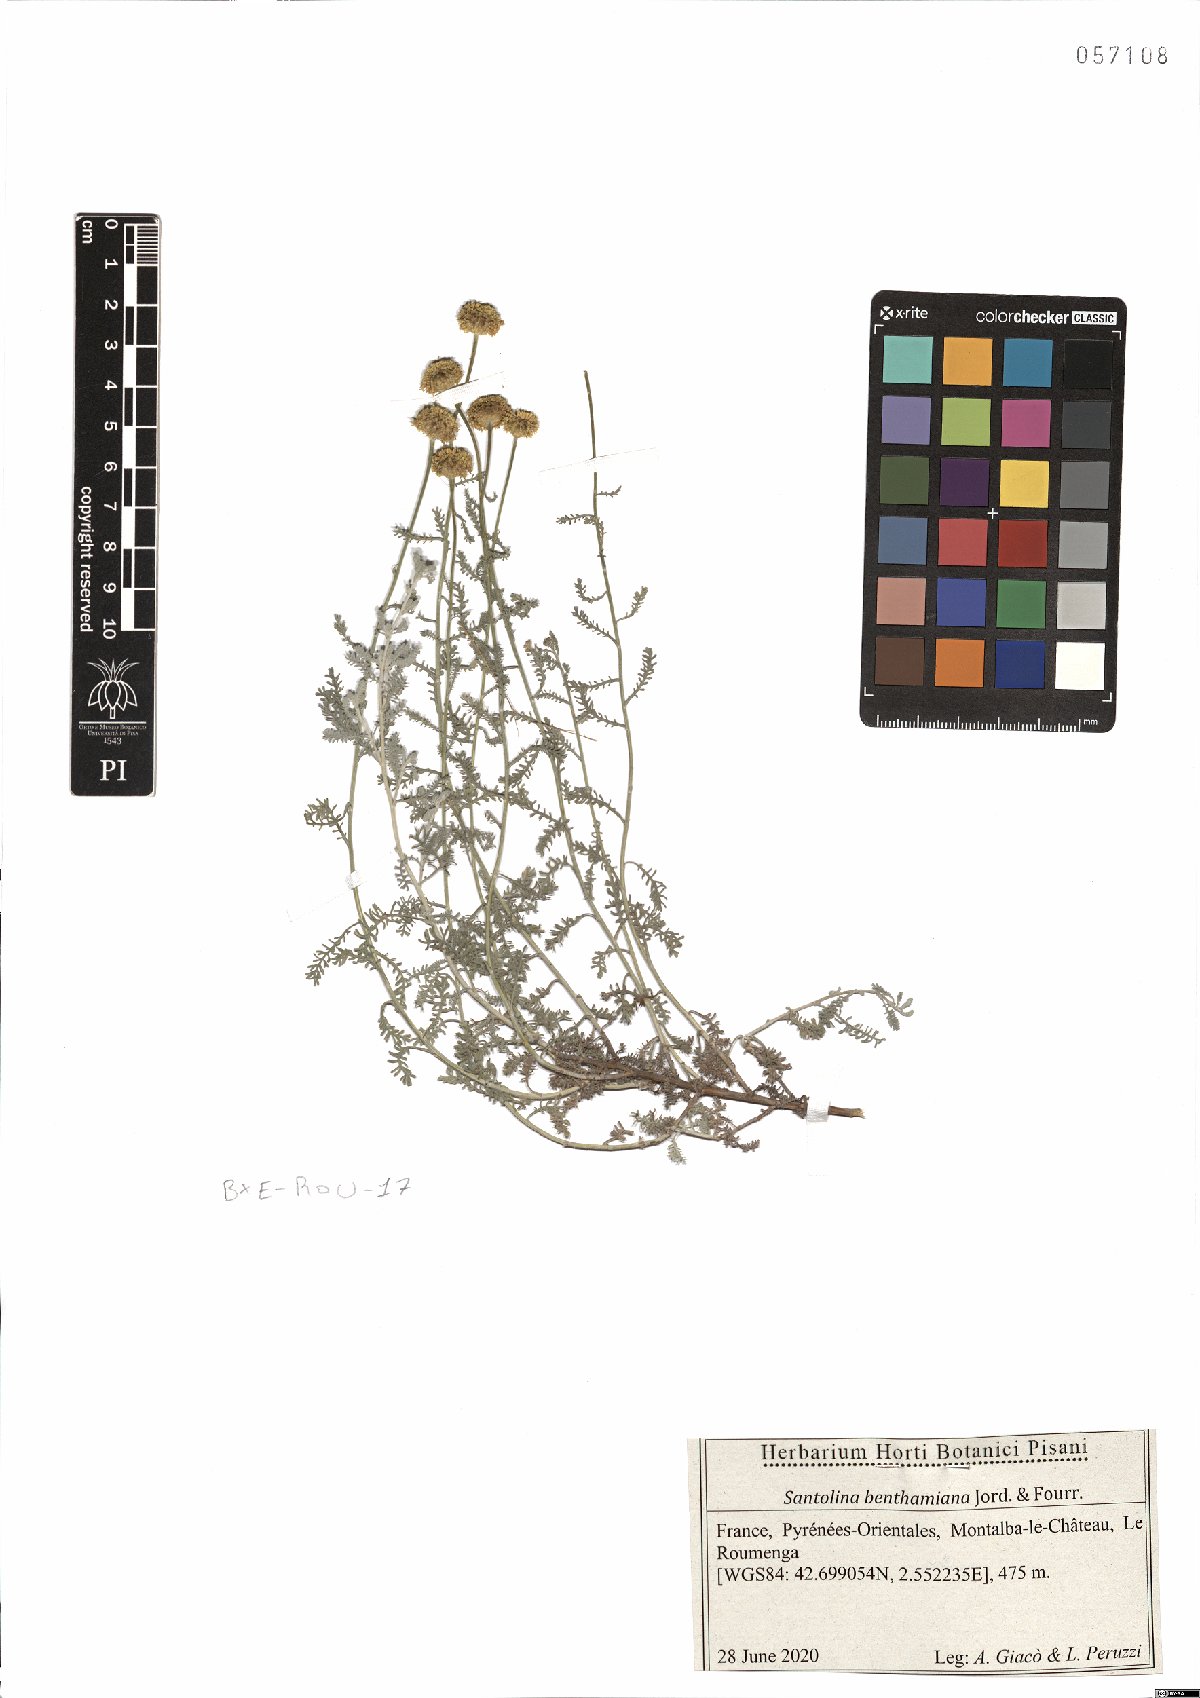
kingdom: Plantae
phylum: Tracheophyta
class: Magnoliopsida
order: Asterales
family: Asteraceae
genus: Santolina
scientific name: Santolina benthamiana
